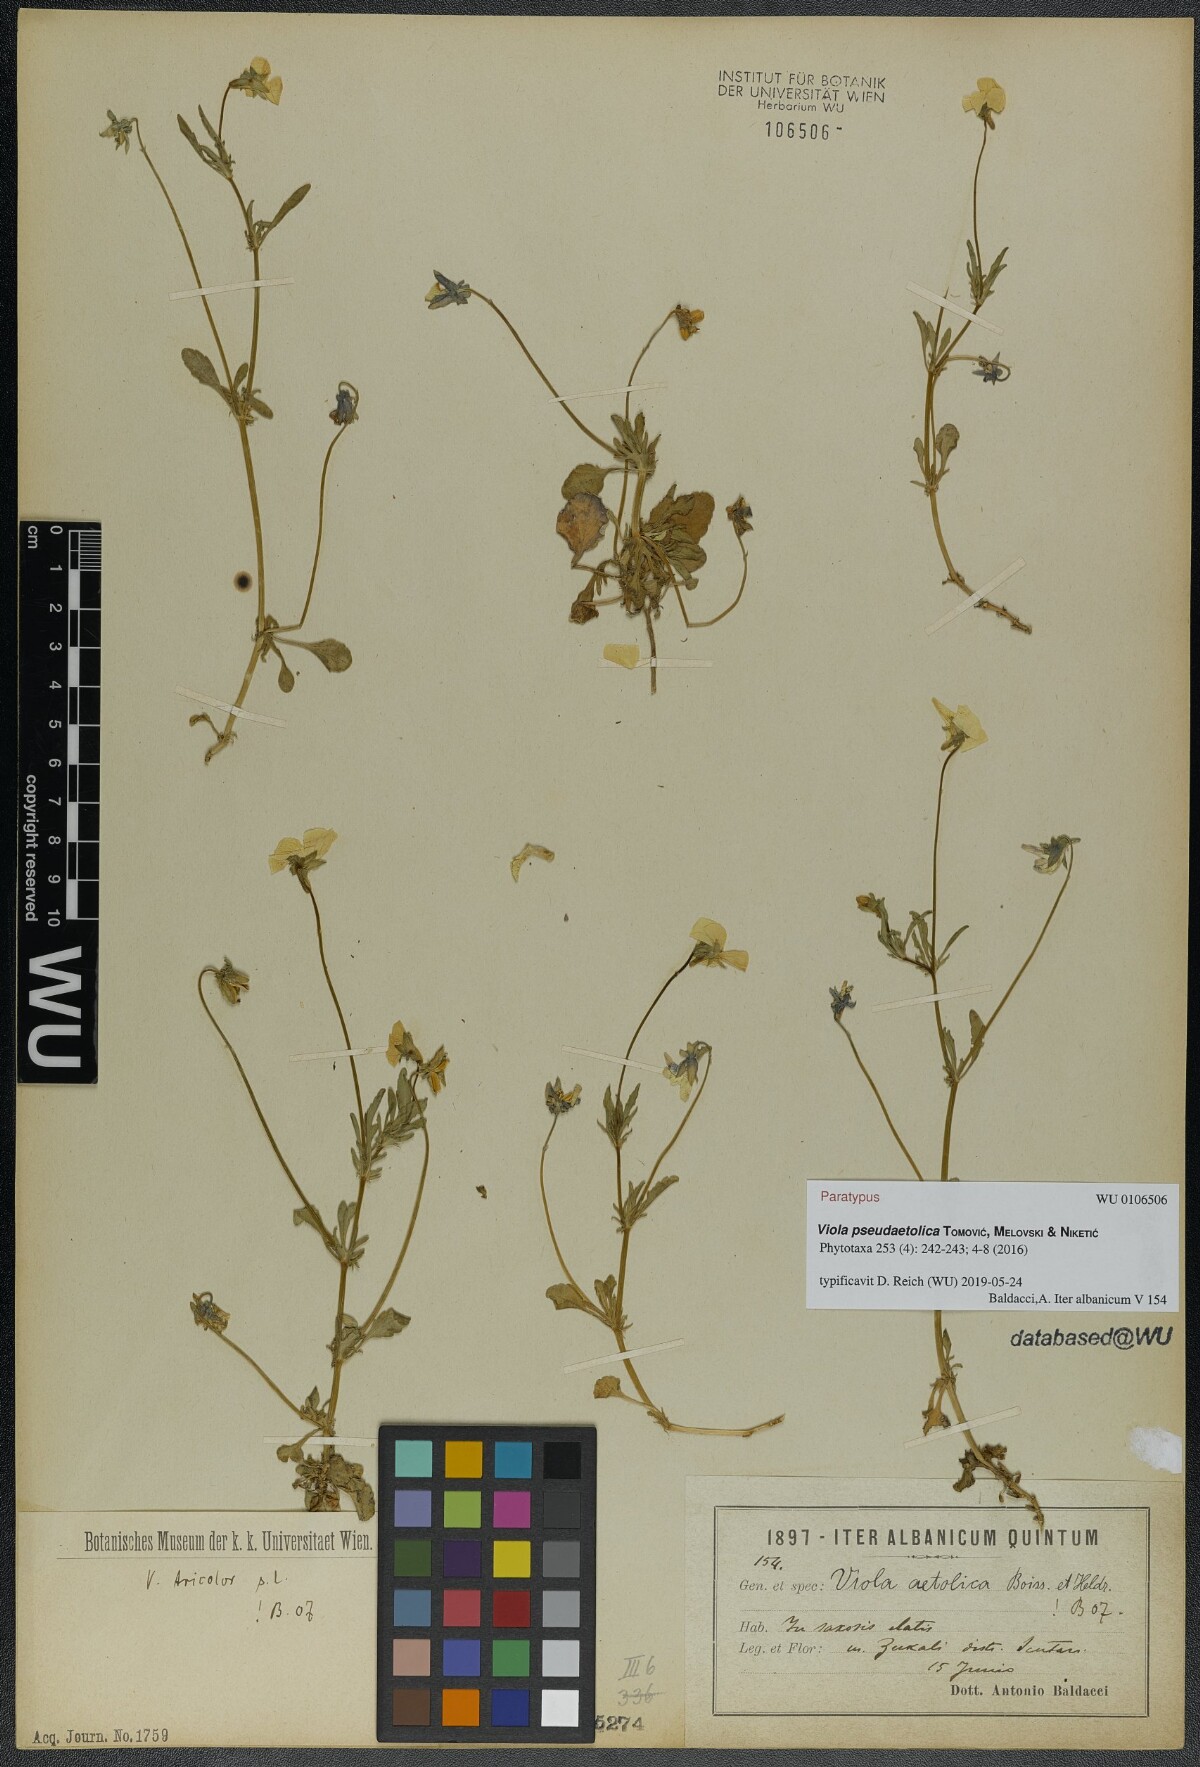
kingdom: Plantae
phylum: Tracheophyta
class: Magnoliopsida
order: Malpighiales
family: Violaceae
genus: Viola
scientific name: Viola pseudaetolica
